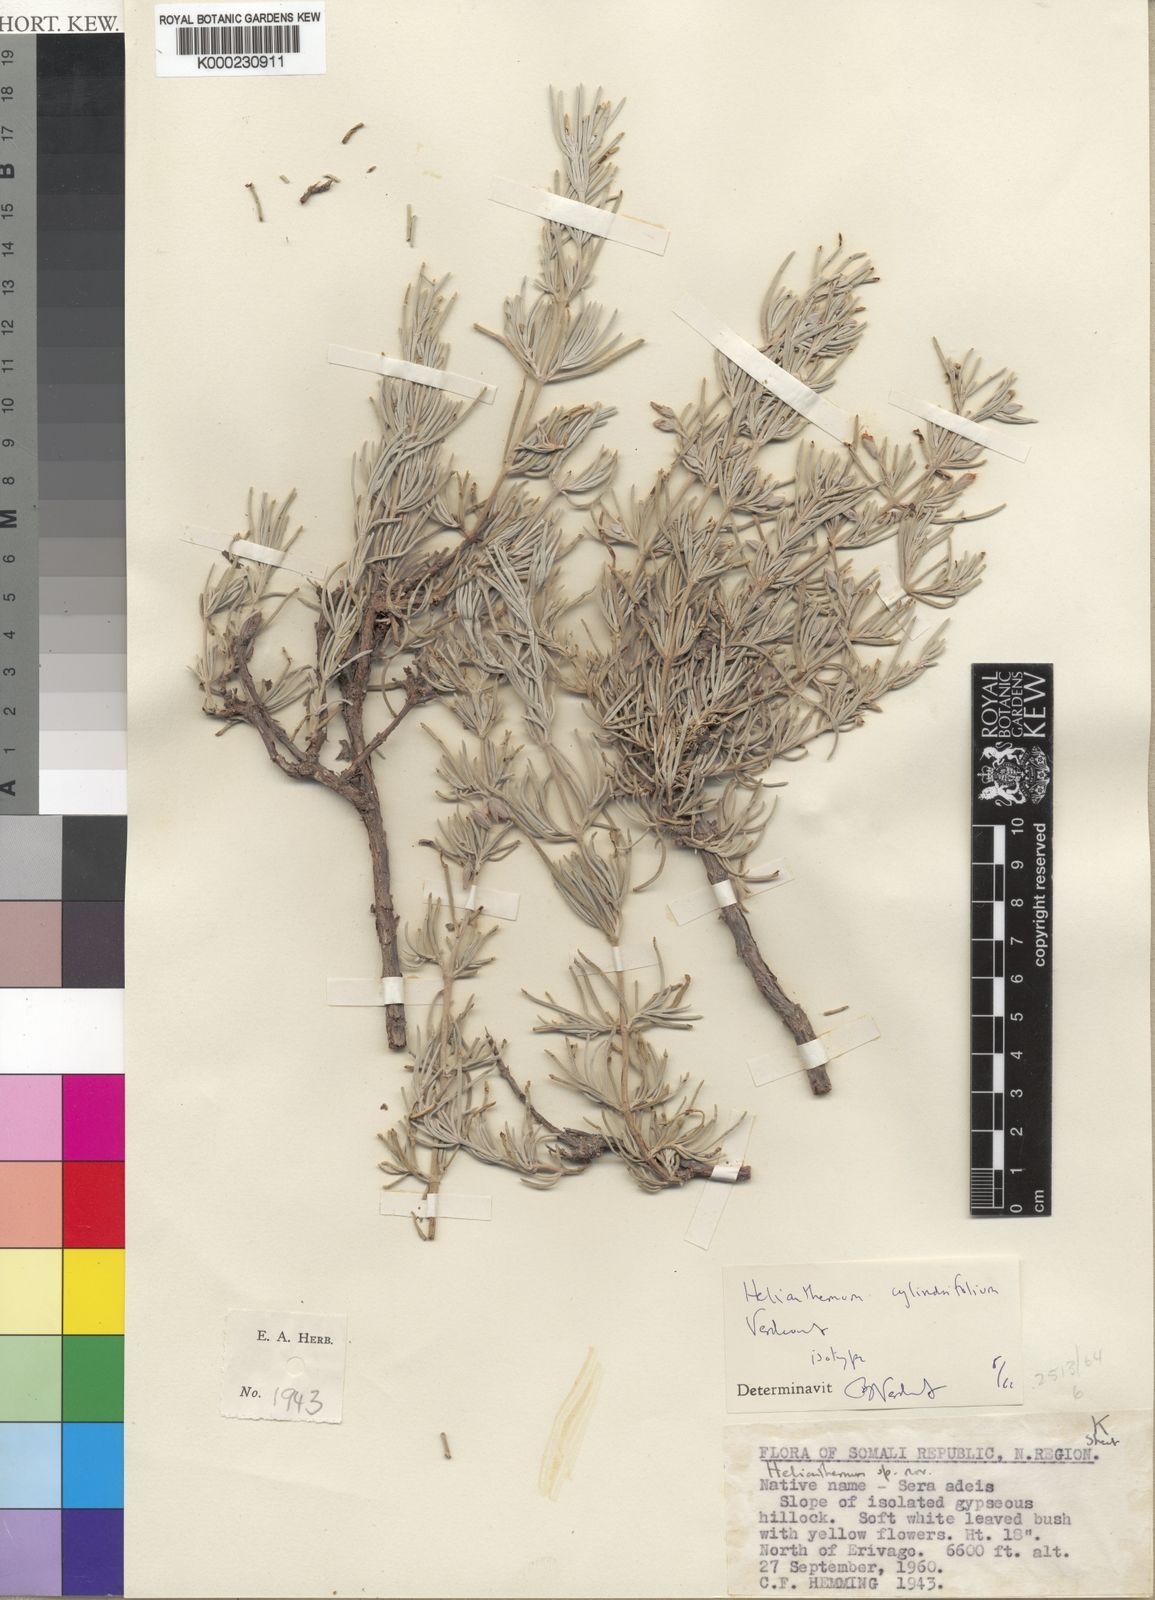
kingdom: Plantae
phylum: Tracheophyta
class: Magnoliopsida
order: Malvales
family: Cistaceae
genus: Helianthemum
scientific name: Helianthemum cylindrifolium
